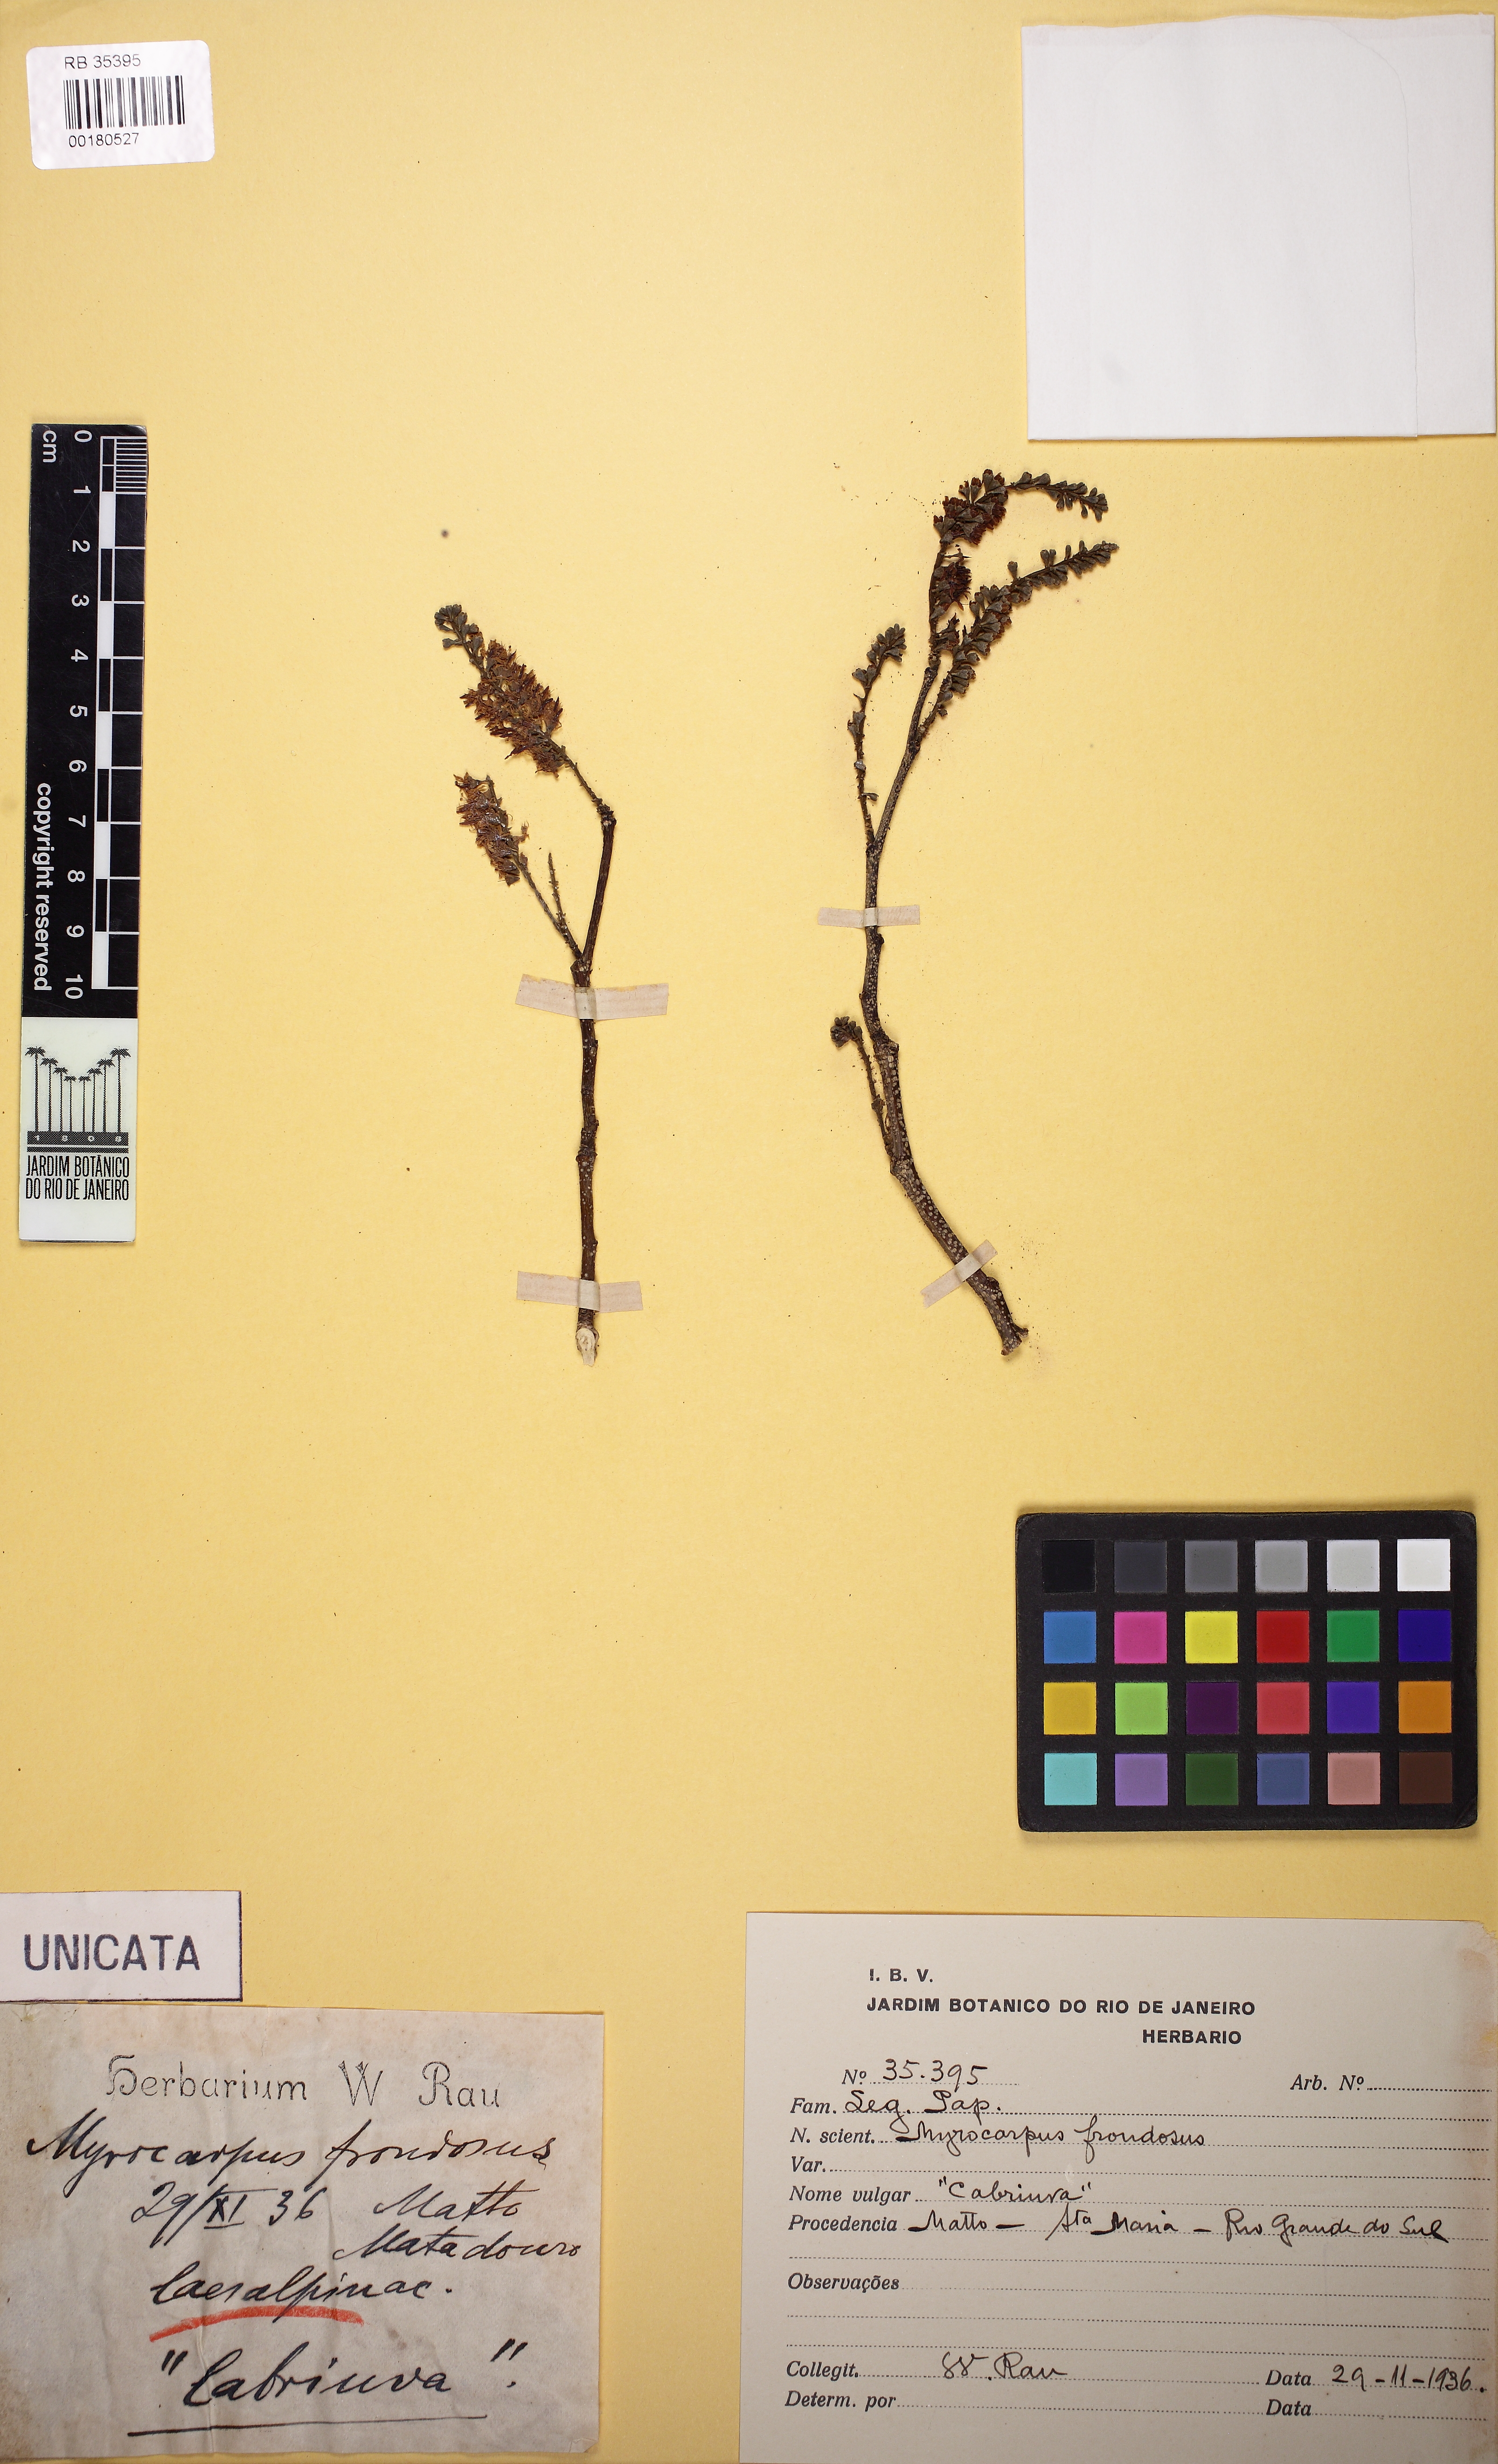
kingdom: Plantae
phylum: Tracheophyta
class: Magnoliopsida
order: Fabales
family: Fabaceae
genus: Myrocarpus
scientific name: Myrocarpus frondosus
